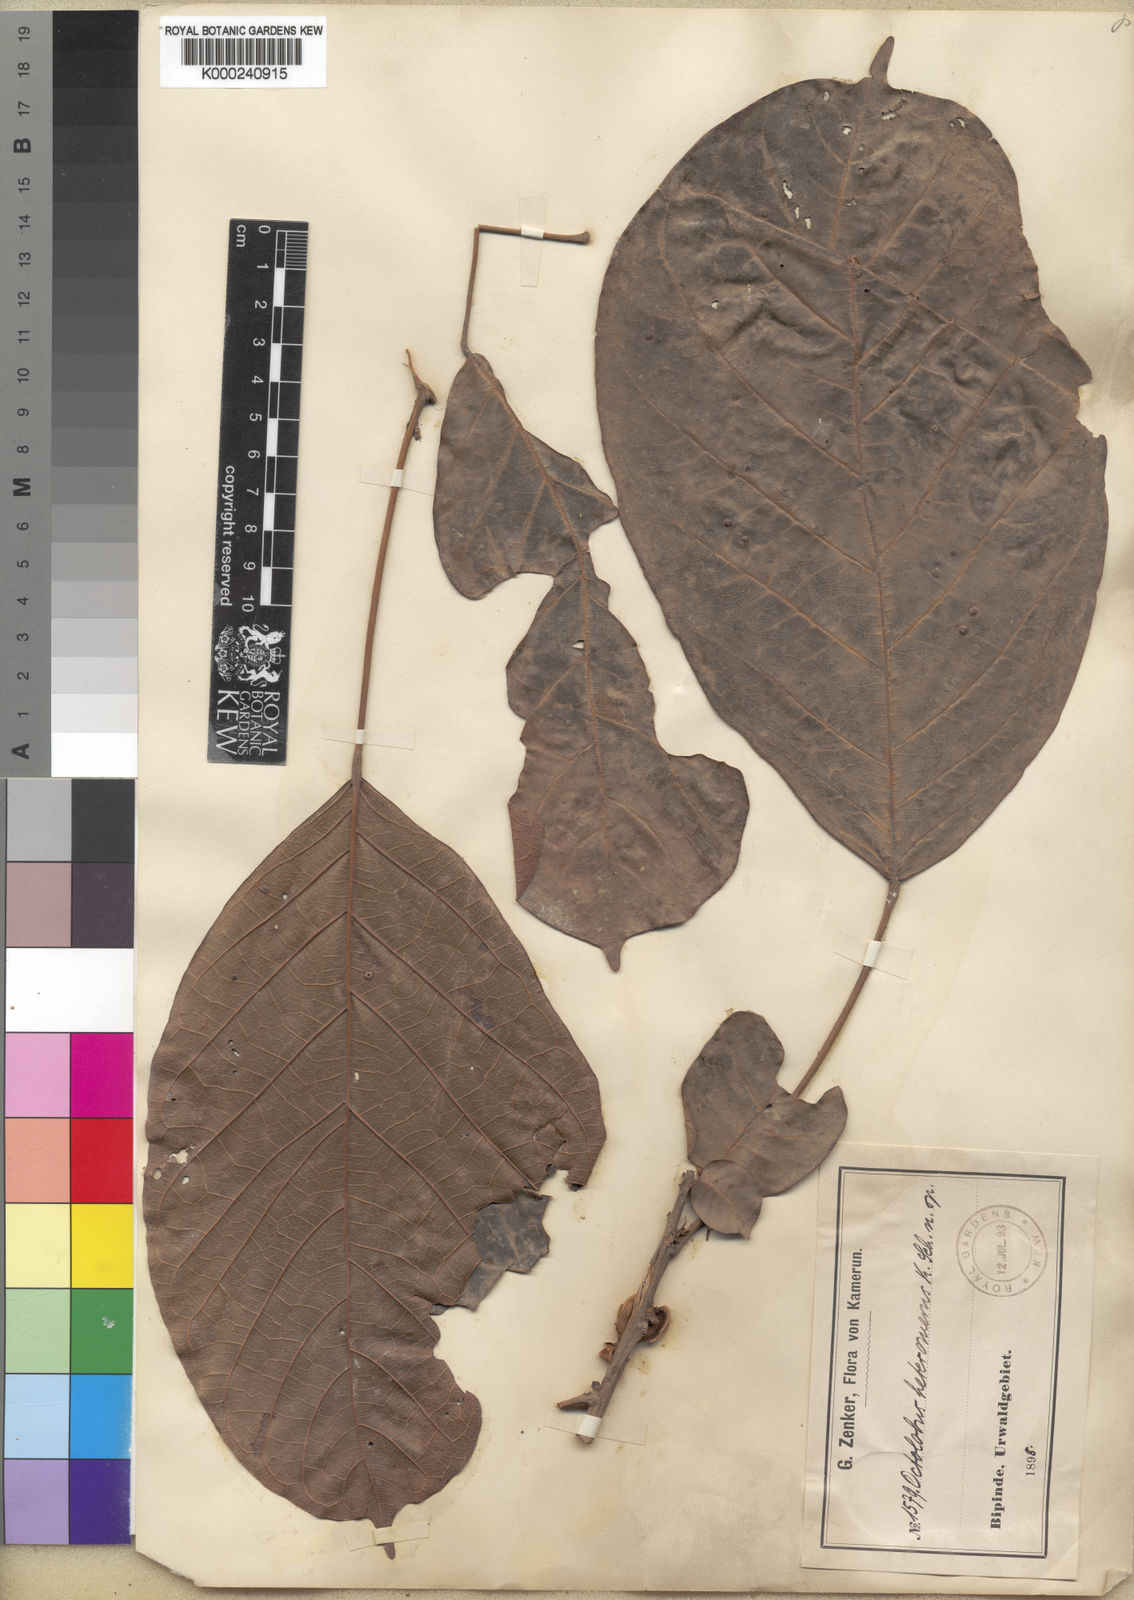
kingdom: Plantae
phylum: Tracheophyta
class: Magnoliopsida
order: Malvales
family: Malvaceae
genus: Octolobus
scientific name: Octolobus heteromerus
